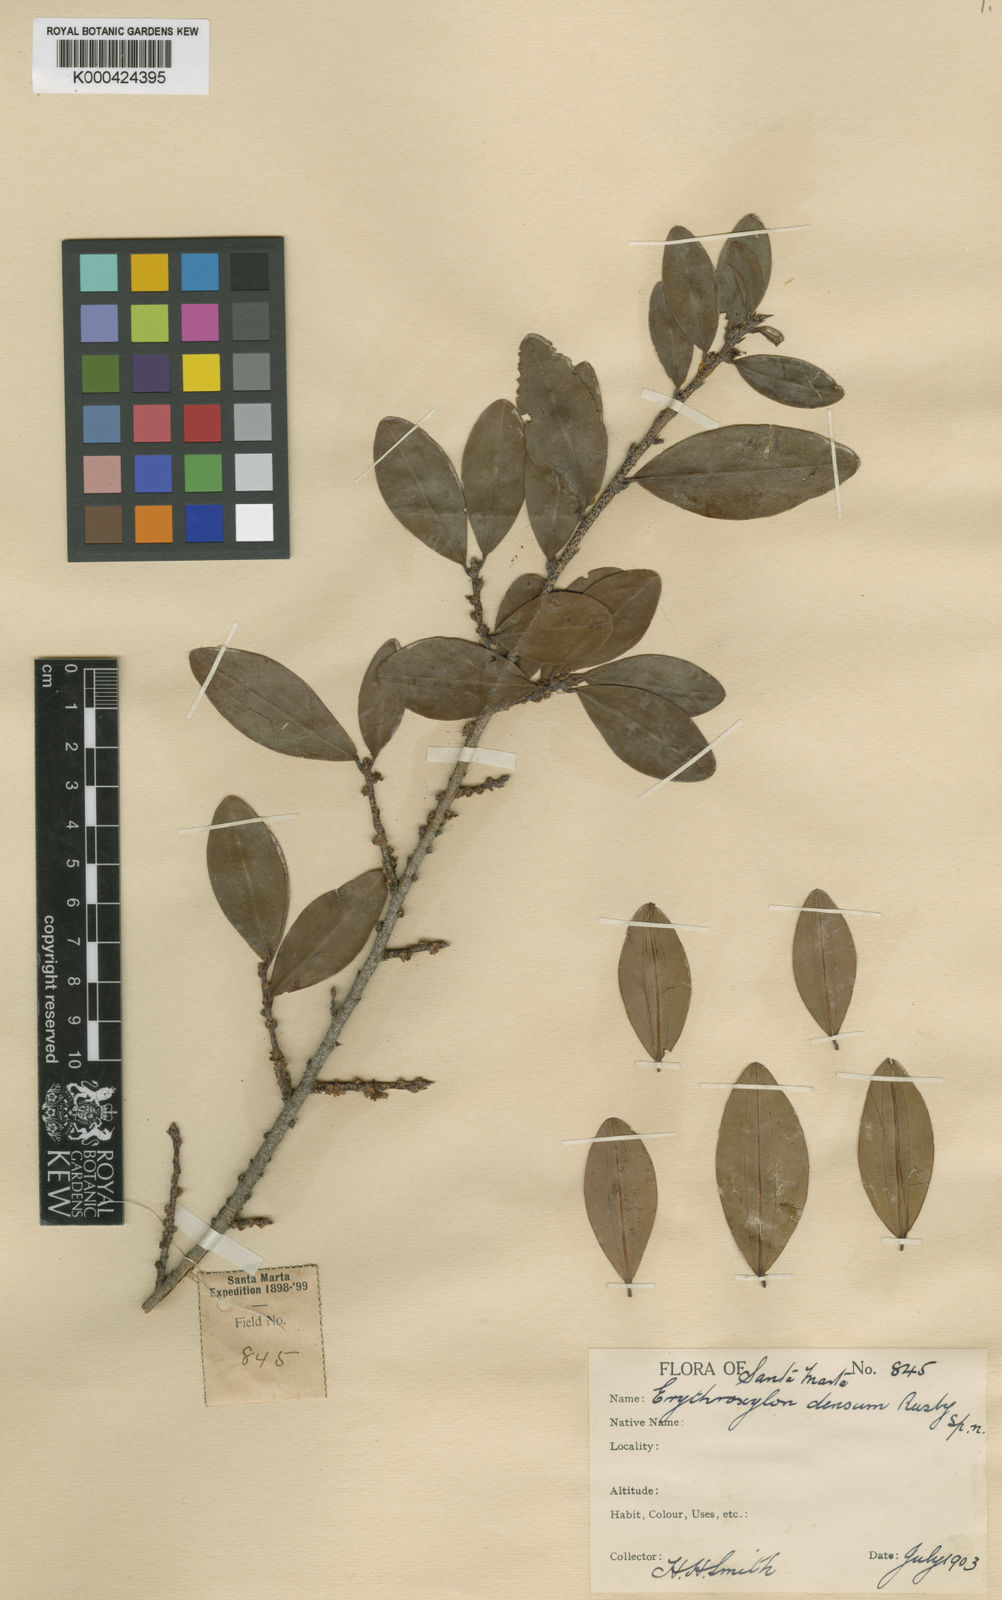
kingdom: Plantae
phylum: Tracheophyta
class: Magnoliopsida
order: Malpighiales
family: Erythroxylaceae
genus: Erythroxylum
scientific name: Erythroxylum densum
